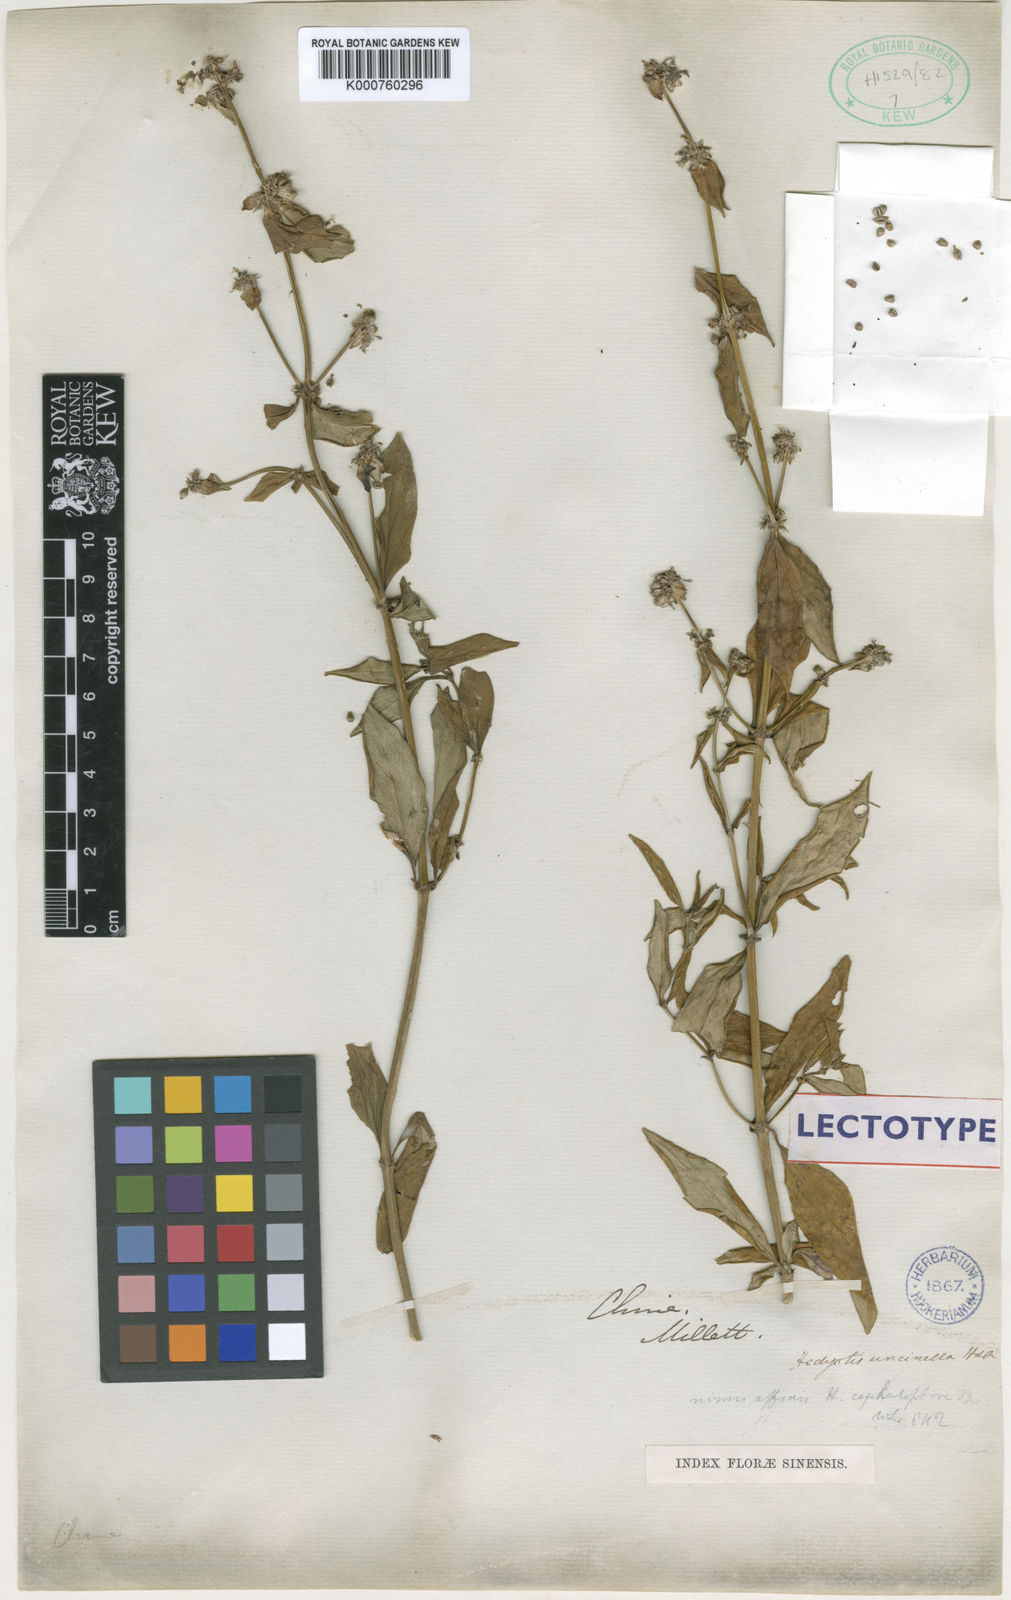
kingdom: Plantae
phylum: Tracheophyta
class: Magnoliopsida
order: Gentianales
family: Rubiaceae
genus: Hedyotis
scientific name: Hedyotis uncinella
